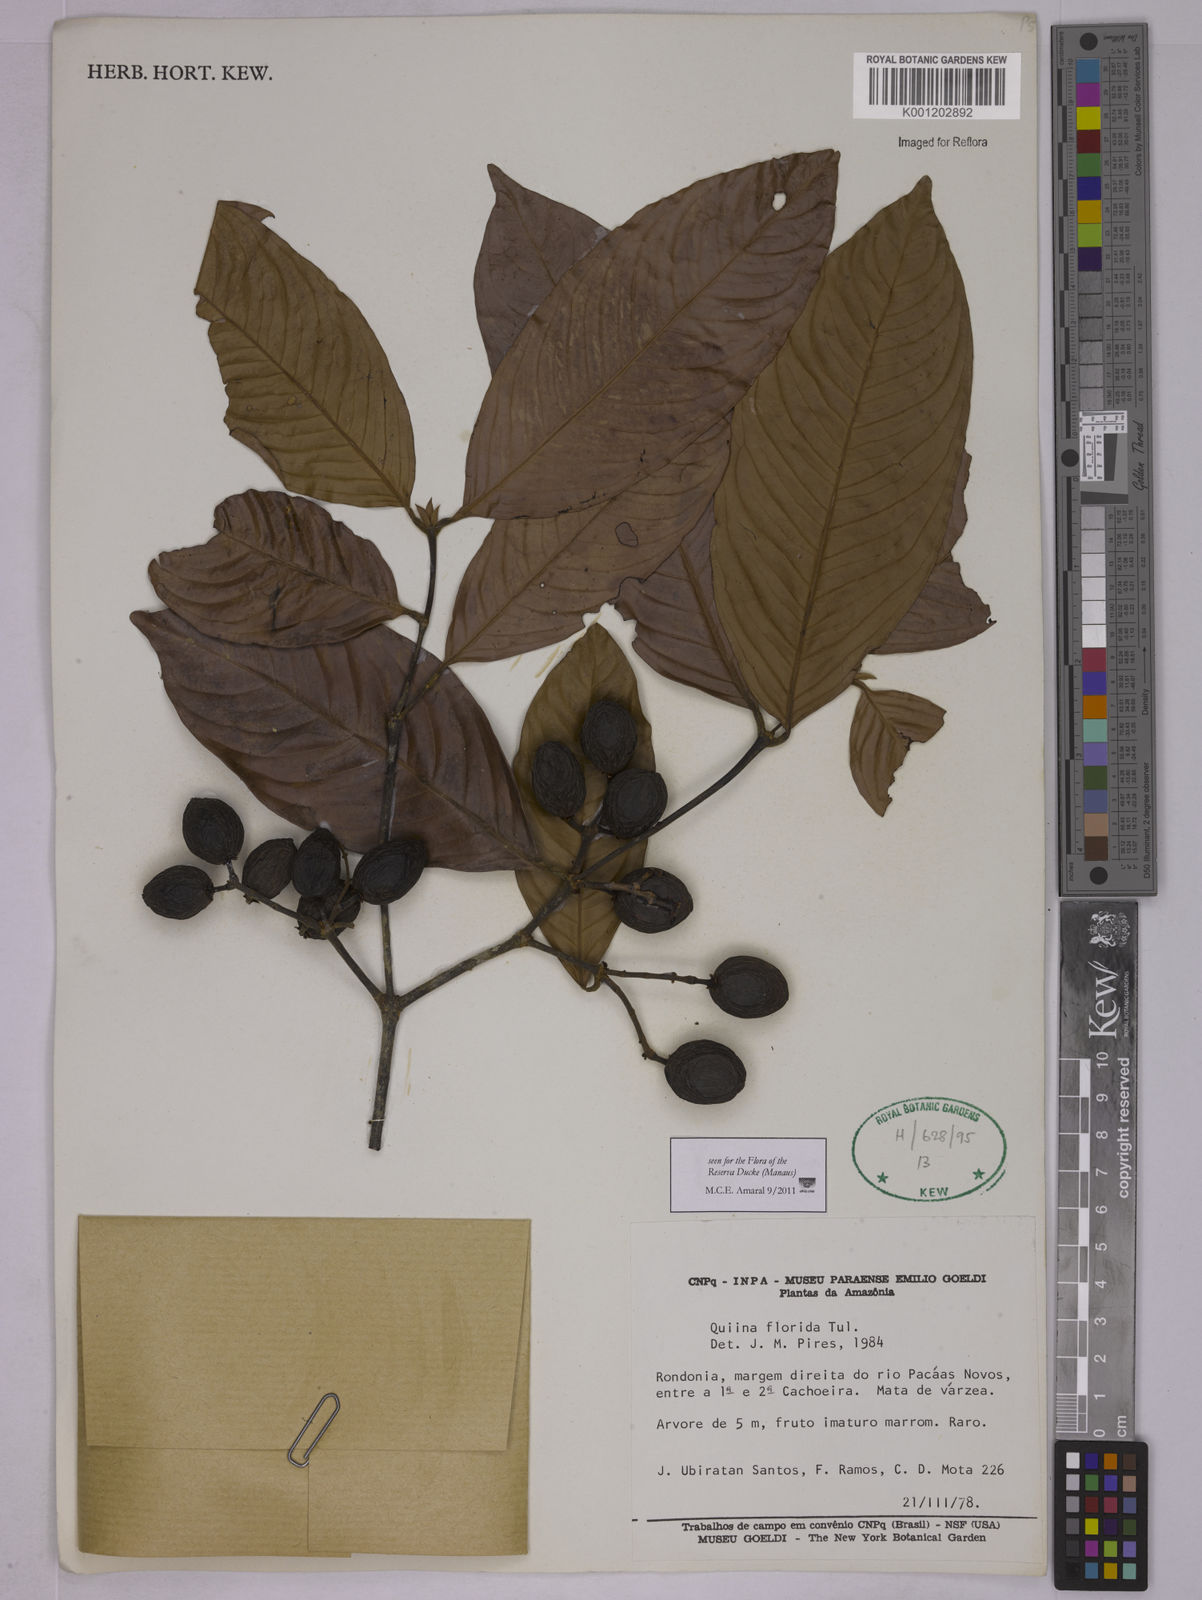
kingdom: Plantae
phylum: Tracheophyta
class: Magnoliopsida
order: Malpighiales
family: Quiinaceae
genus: Quiina
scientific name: Quiina florida
